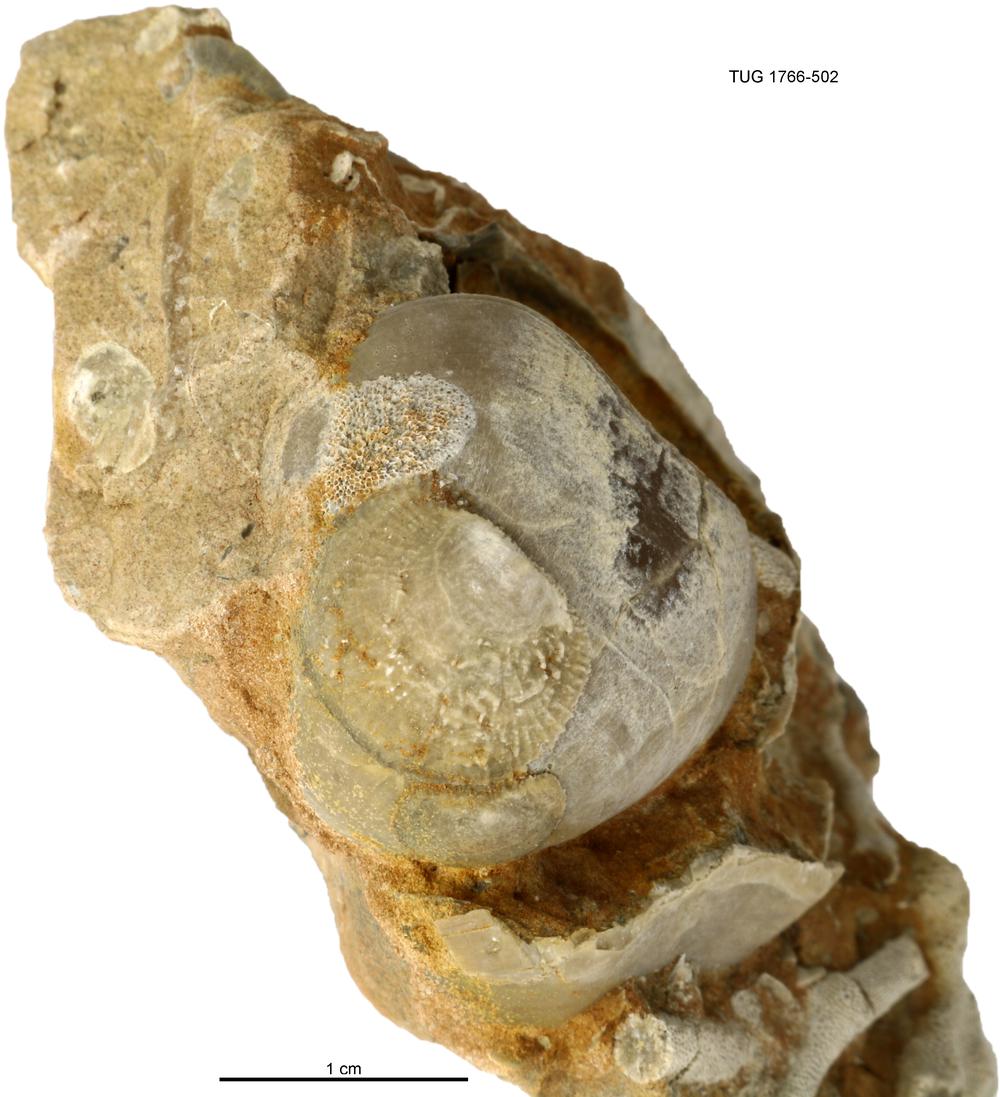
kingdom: Animalia
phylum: Brachiopoda
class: Craniata
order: Craniida
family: Craniidae
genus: Philhedra
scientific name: Philhedra
